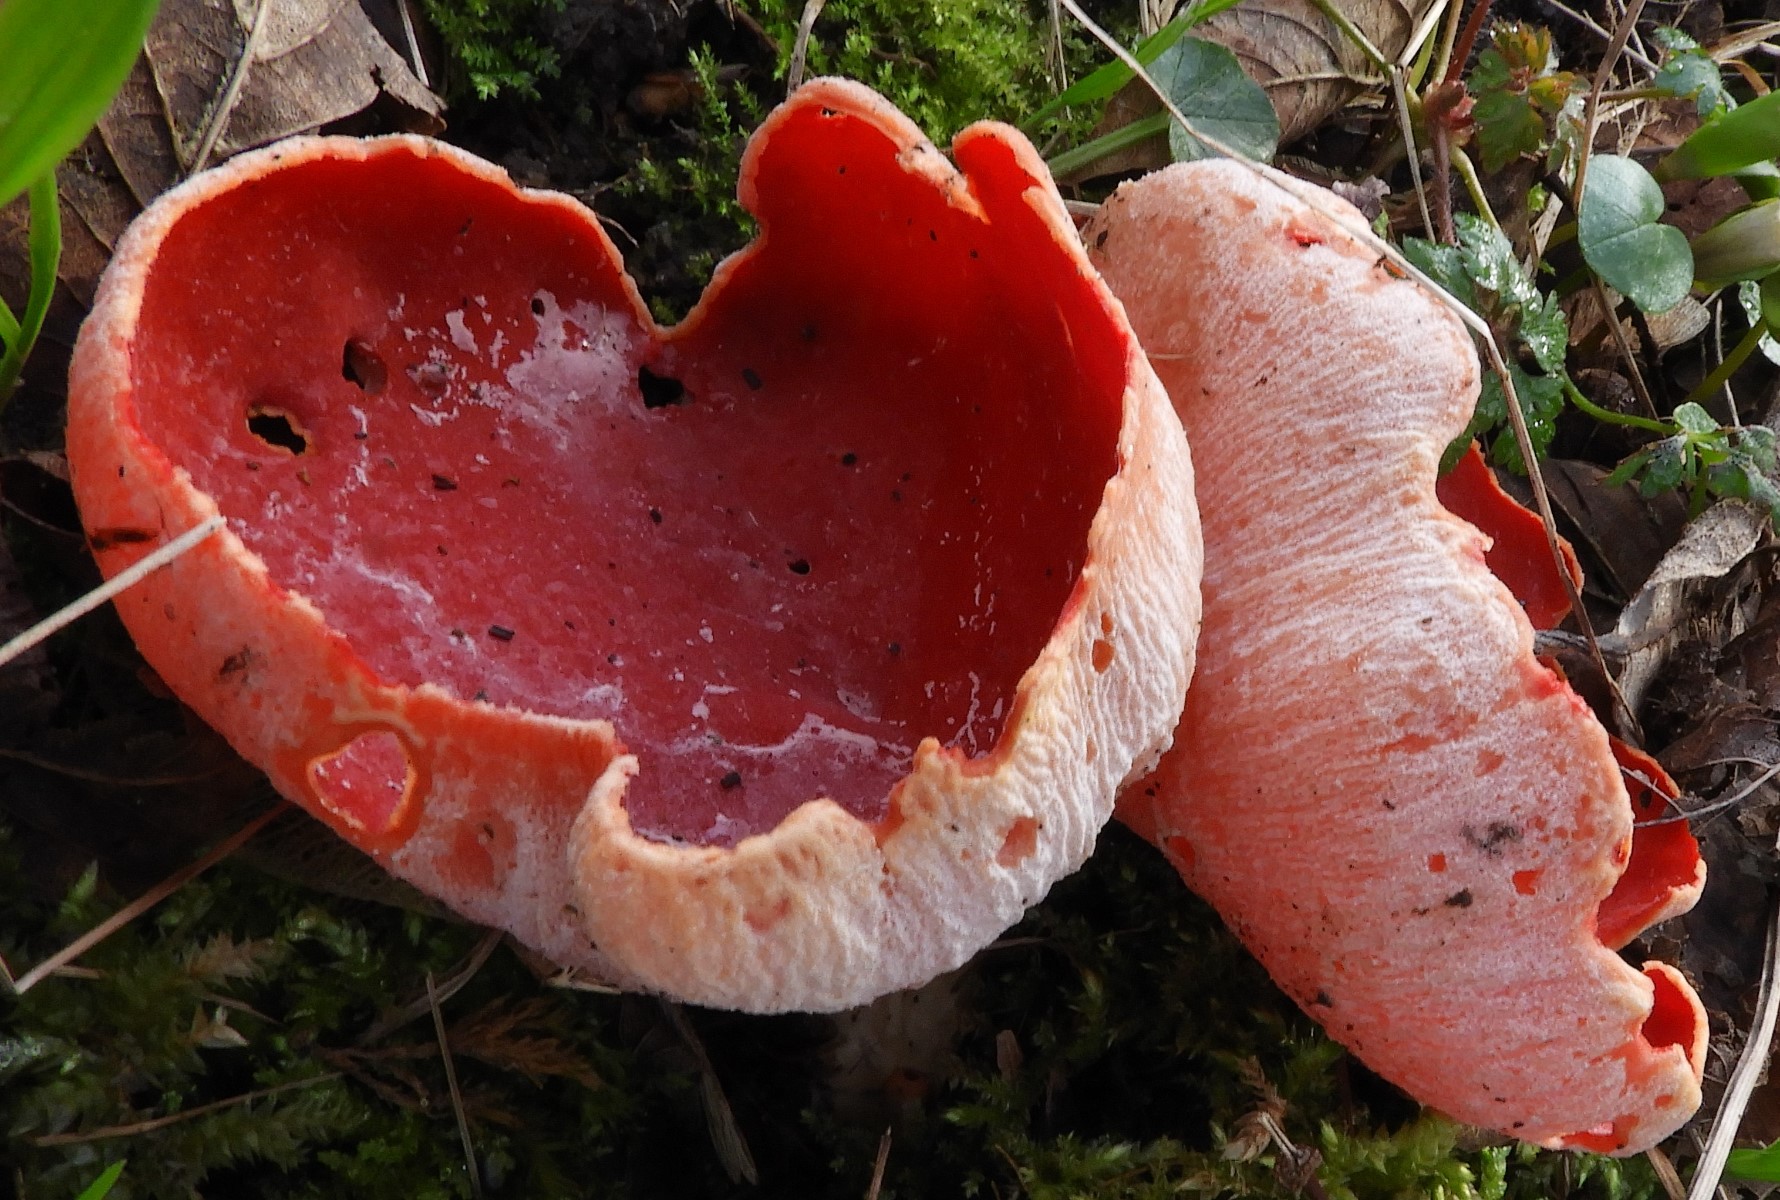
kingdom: Fungi
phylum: Ascomycota
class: Pezizomycetes
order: Pezizales
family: Sarcoscyphaceae
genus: Sarcoscypha
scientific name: Sarcoscypha austriaca
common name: krølhåret pragtbæger
